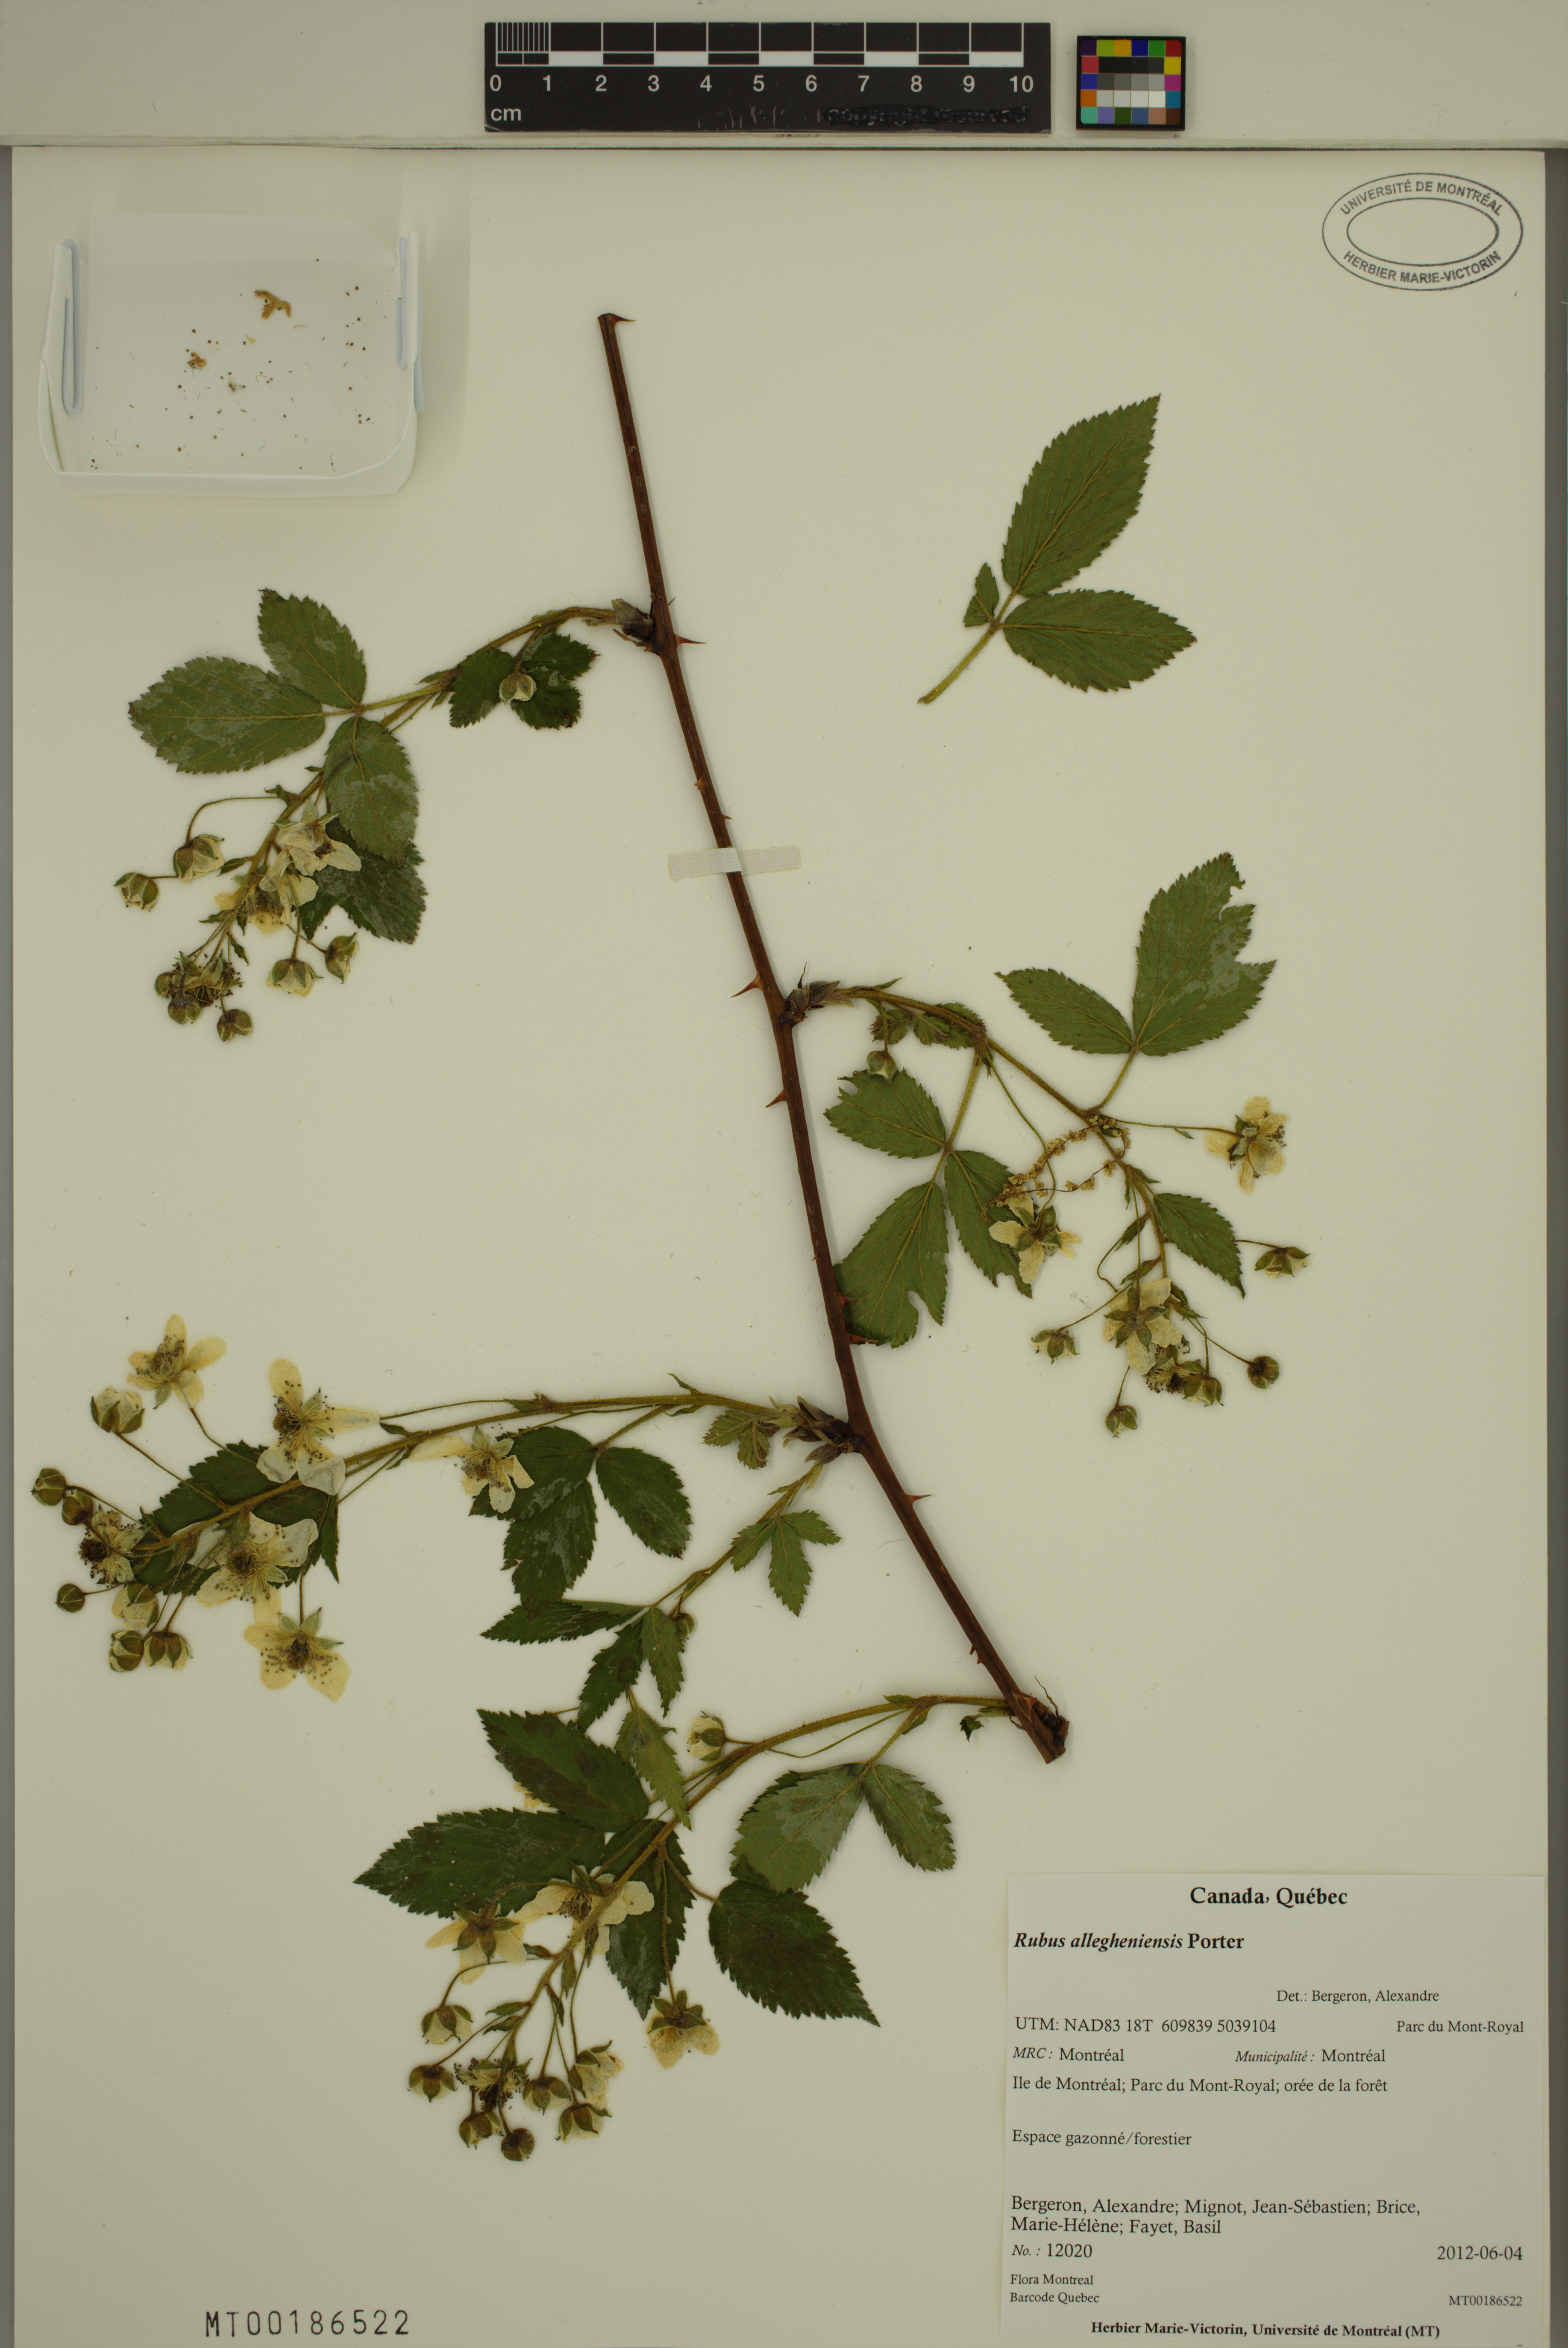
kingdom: Plantae
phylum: Tracheophyta
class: Magnoliopsida
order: Rosales
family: Rosaceae
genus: Rubus
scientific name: Rubus allegheniensis
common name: Allegheny blackberry
